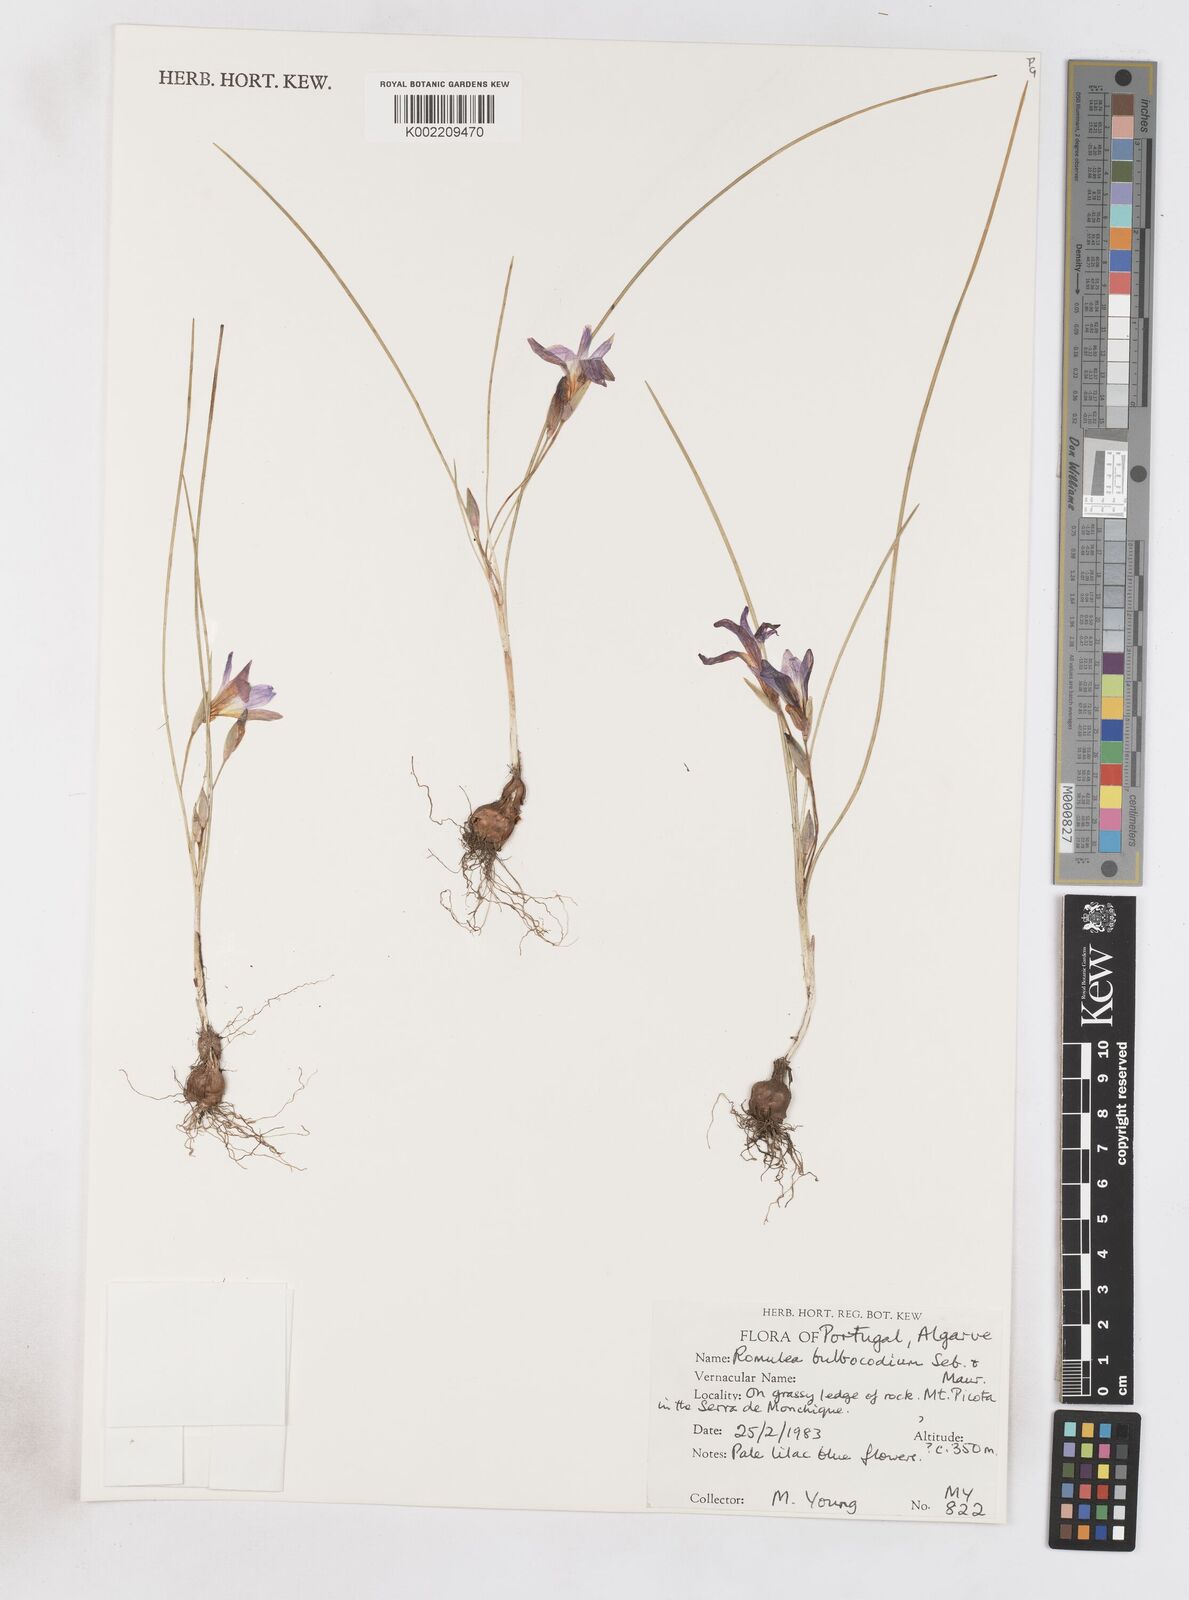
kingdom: Plantae
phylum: Tracheophyta
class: Liliopsida
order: Asparagales
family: Iridaceae
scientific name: Iridaceae
